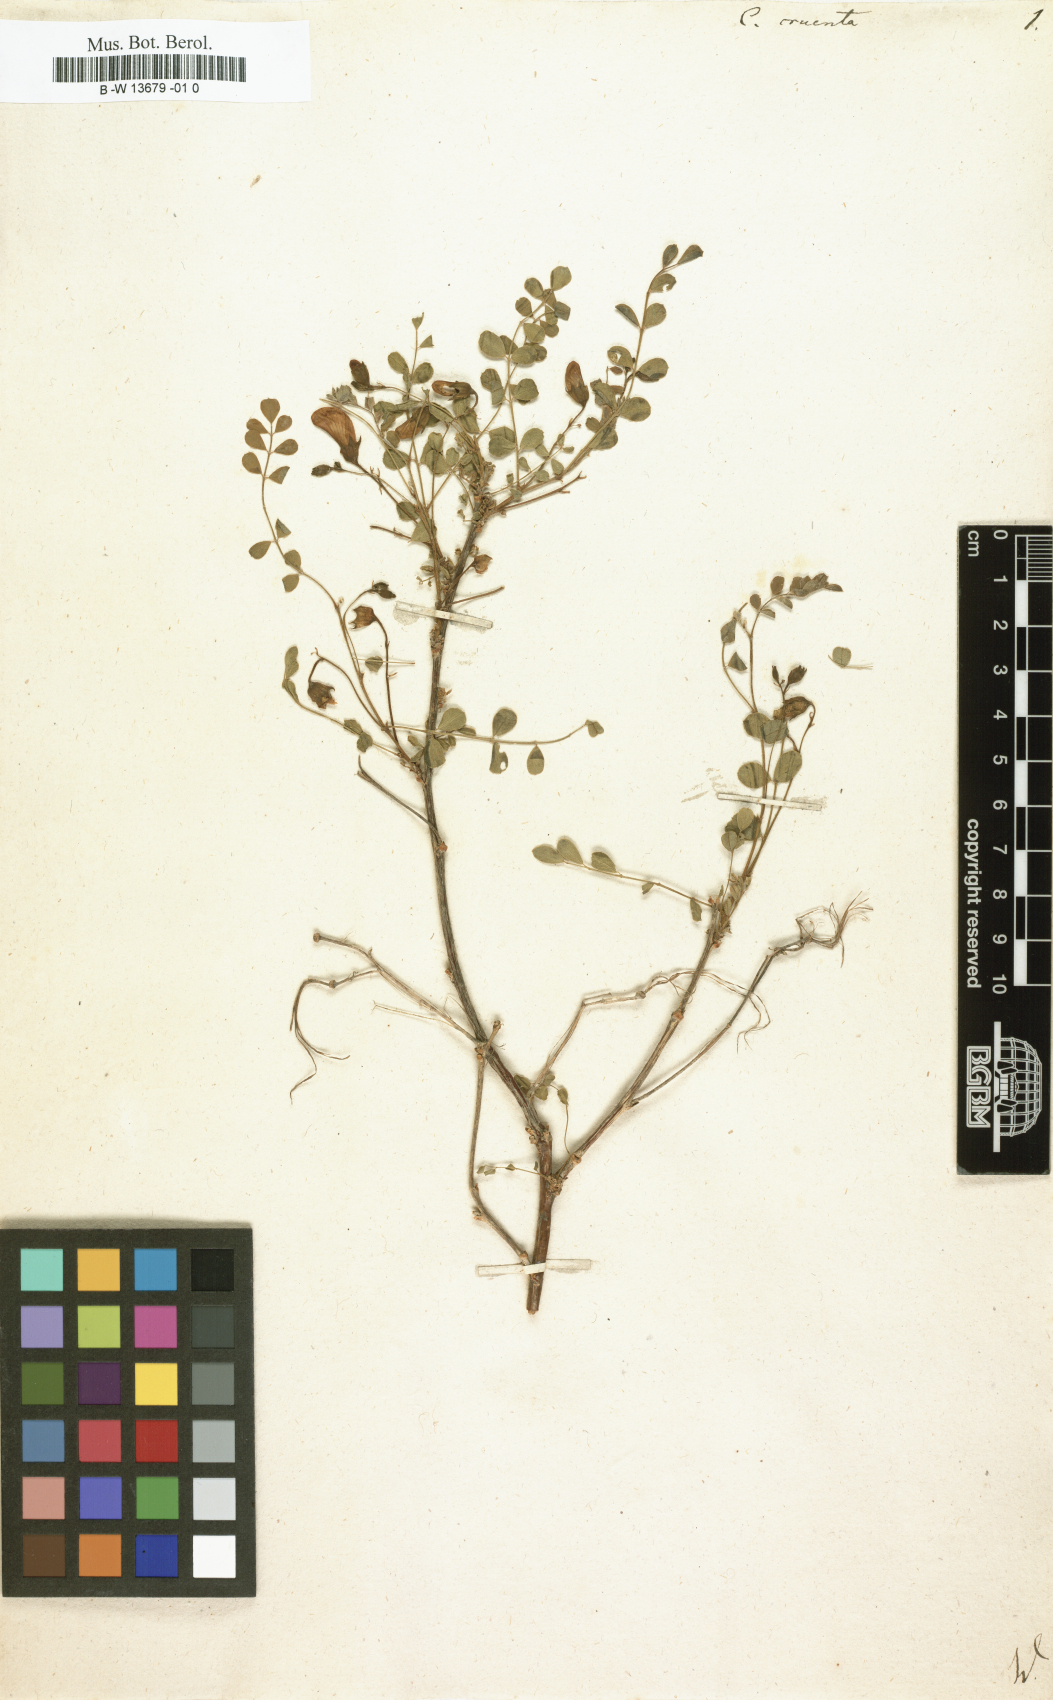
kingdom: Plantae
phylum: Tracheophyta
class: Magnoliopsida
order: Fabales
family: Fabaceae
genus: Colutea
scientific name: Colutea orientalis
